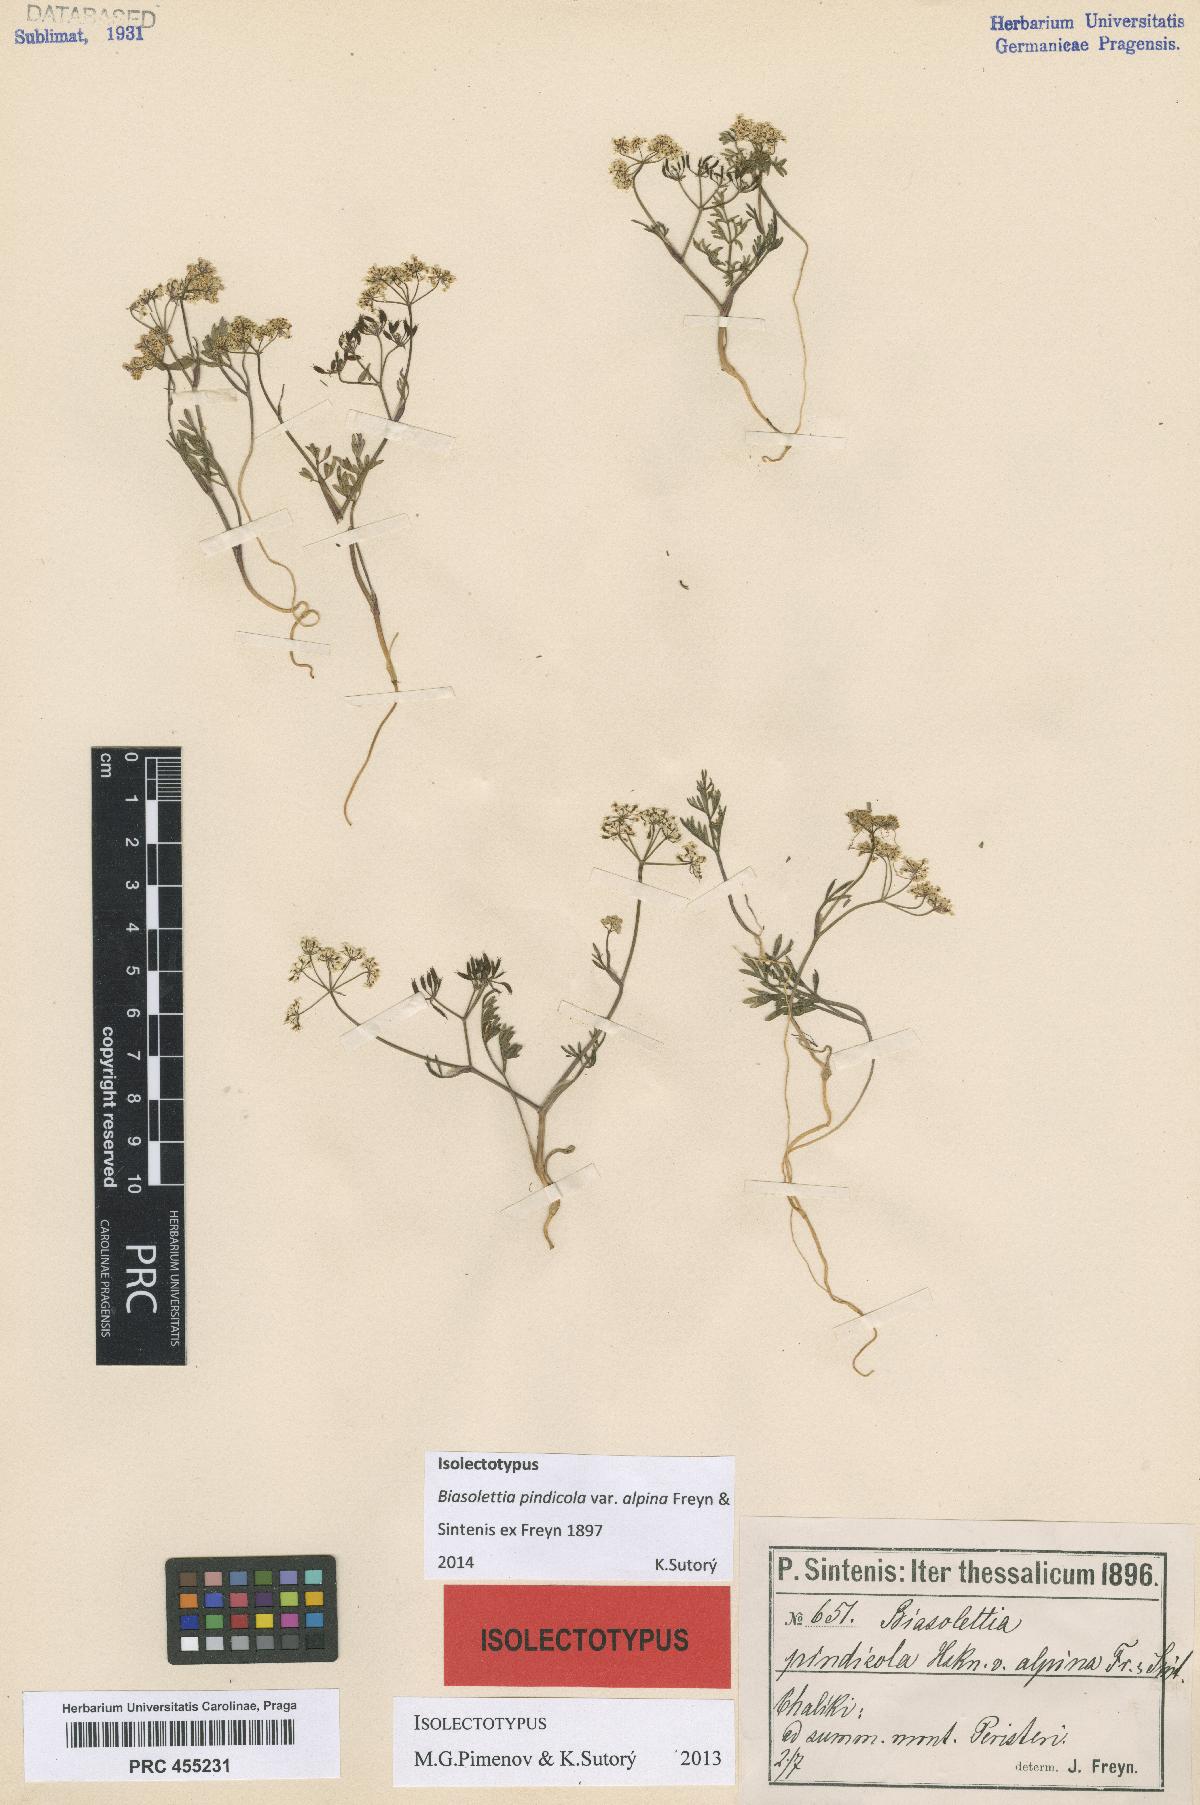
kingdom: Plantae
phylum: Tracheophyta
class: Magnoliopsida
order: Apiales
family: Apiaceae
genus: Geocaryum
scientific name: Geocaryum pindicola
